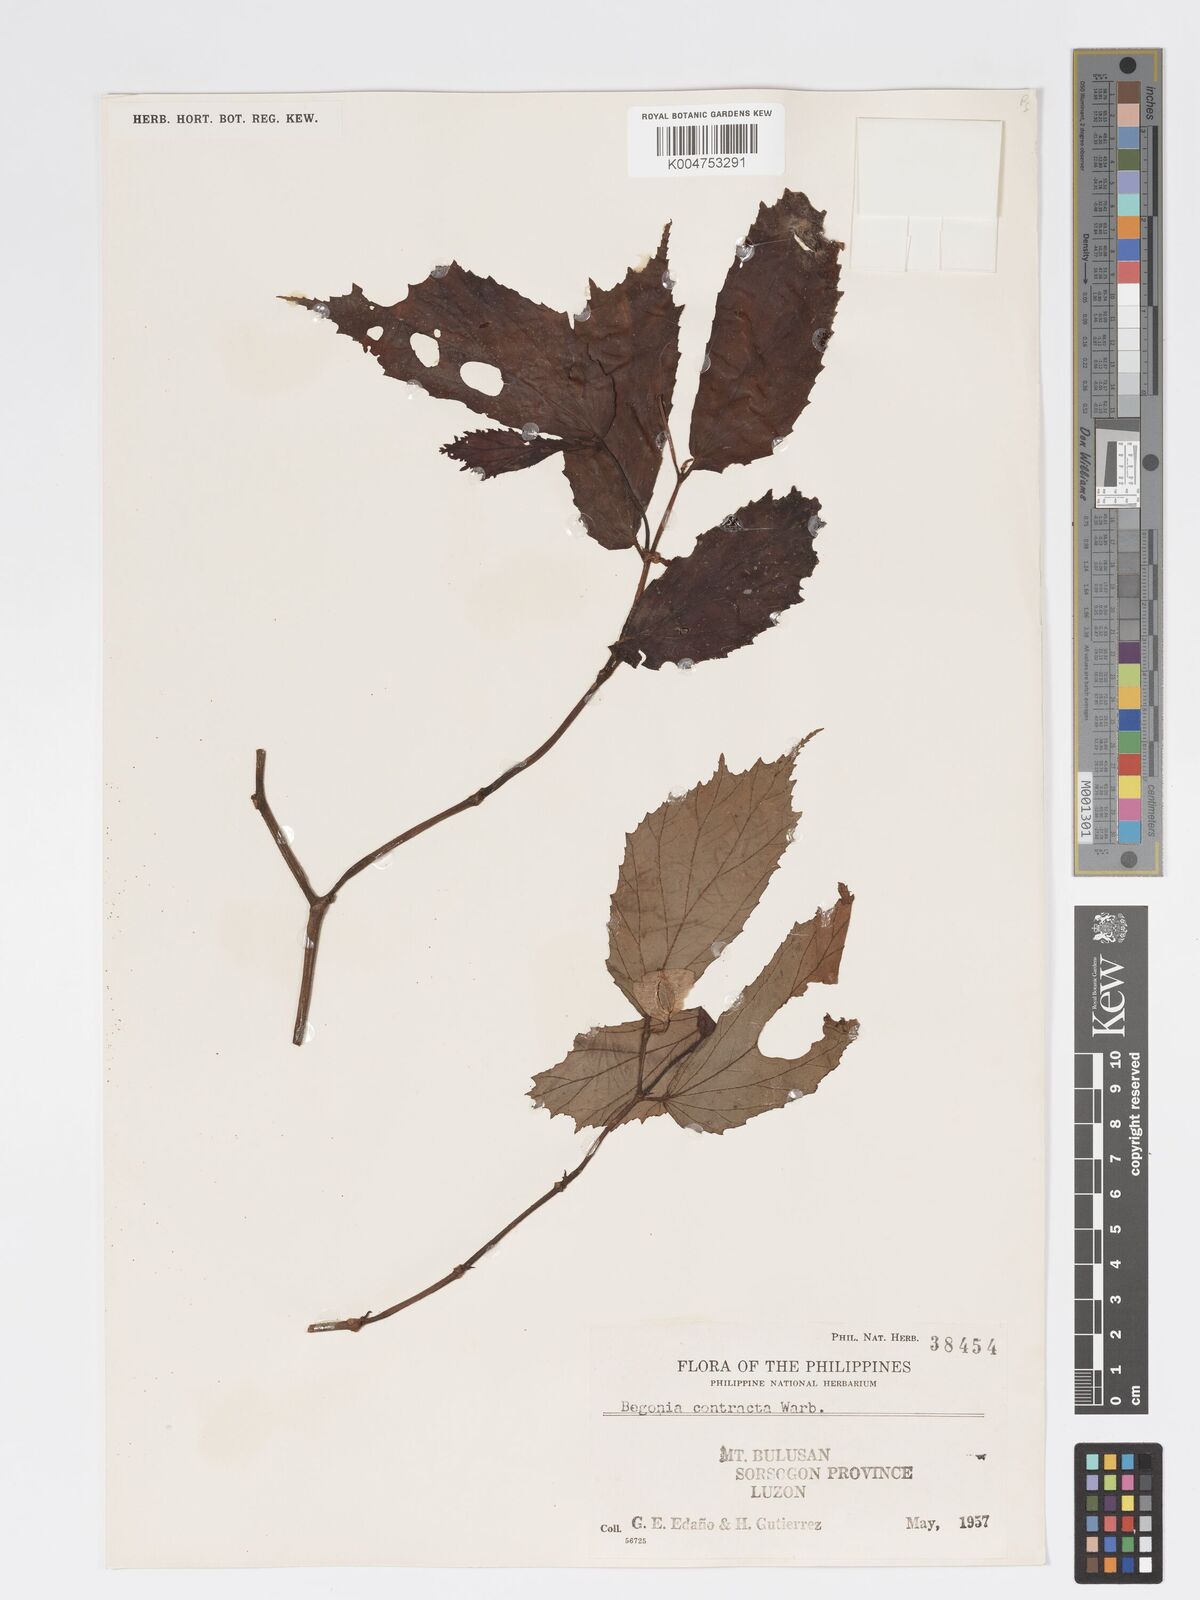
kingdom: Plantae
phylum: Tracheophyta
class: Magnoliopsida
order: Cucurbitales
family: Begoniaceae
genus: Begonia
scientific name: Begonia contracta
